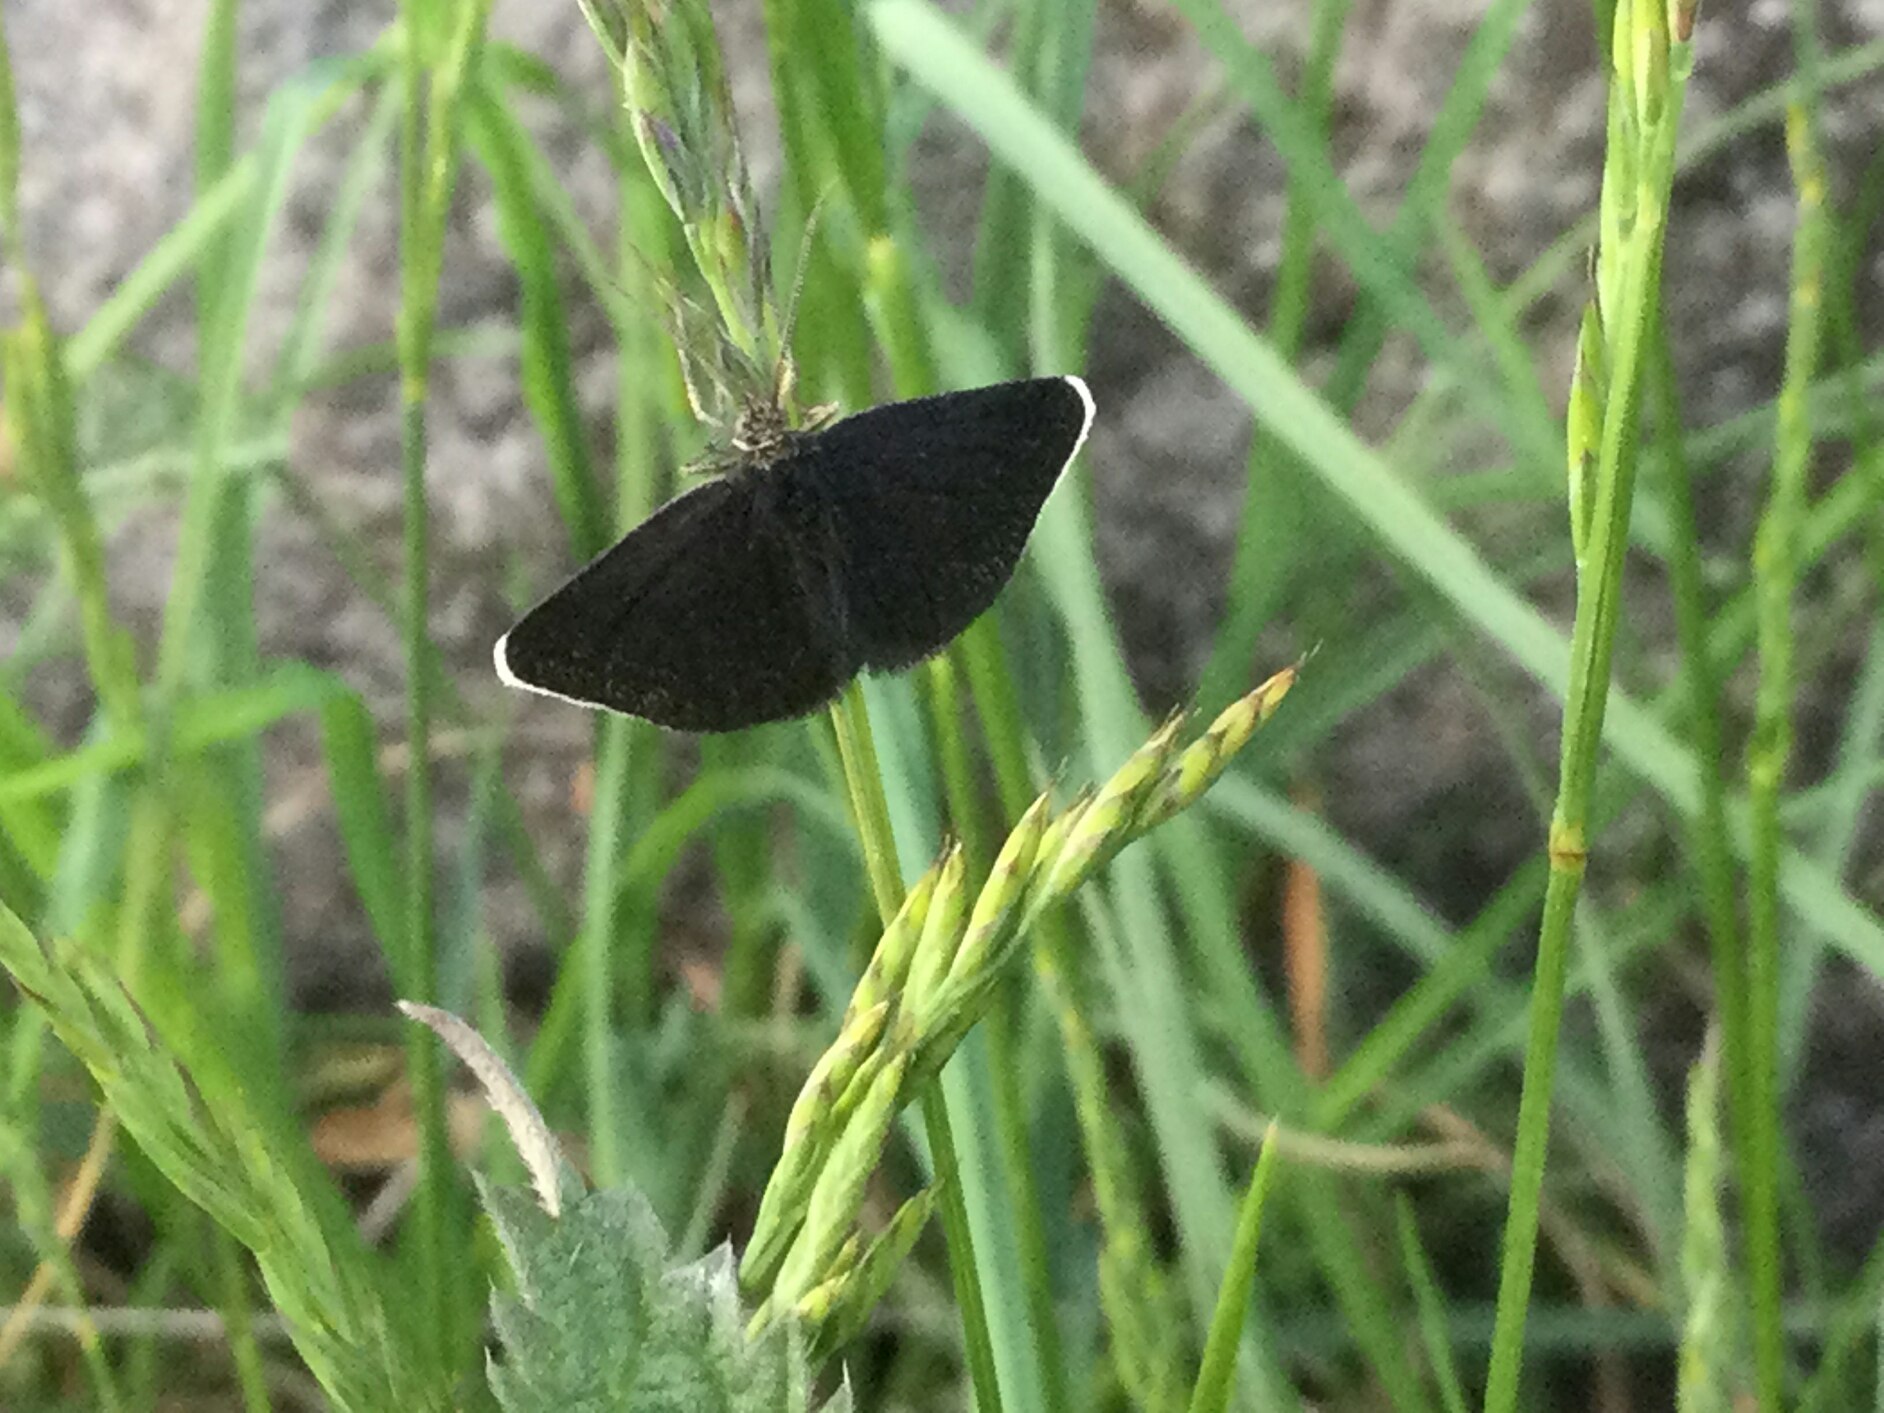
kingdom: Animalia
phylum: Arthropoda
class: Insecta
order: Lepidoptera
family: Geometridae
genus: Odezia
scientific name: Odezia atrata
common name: Sort måler
